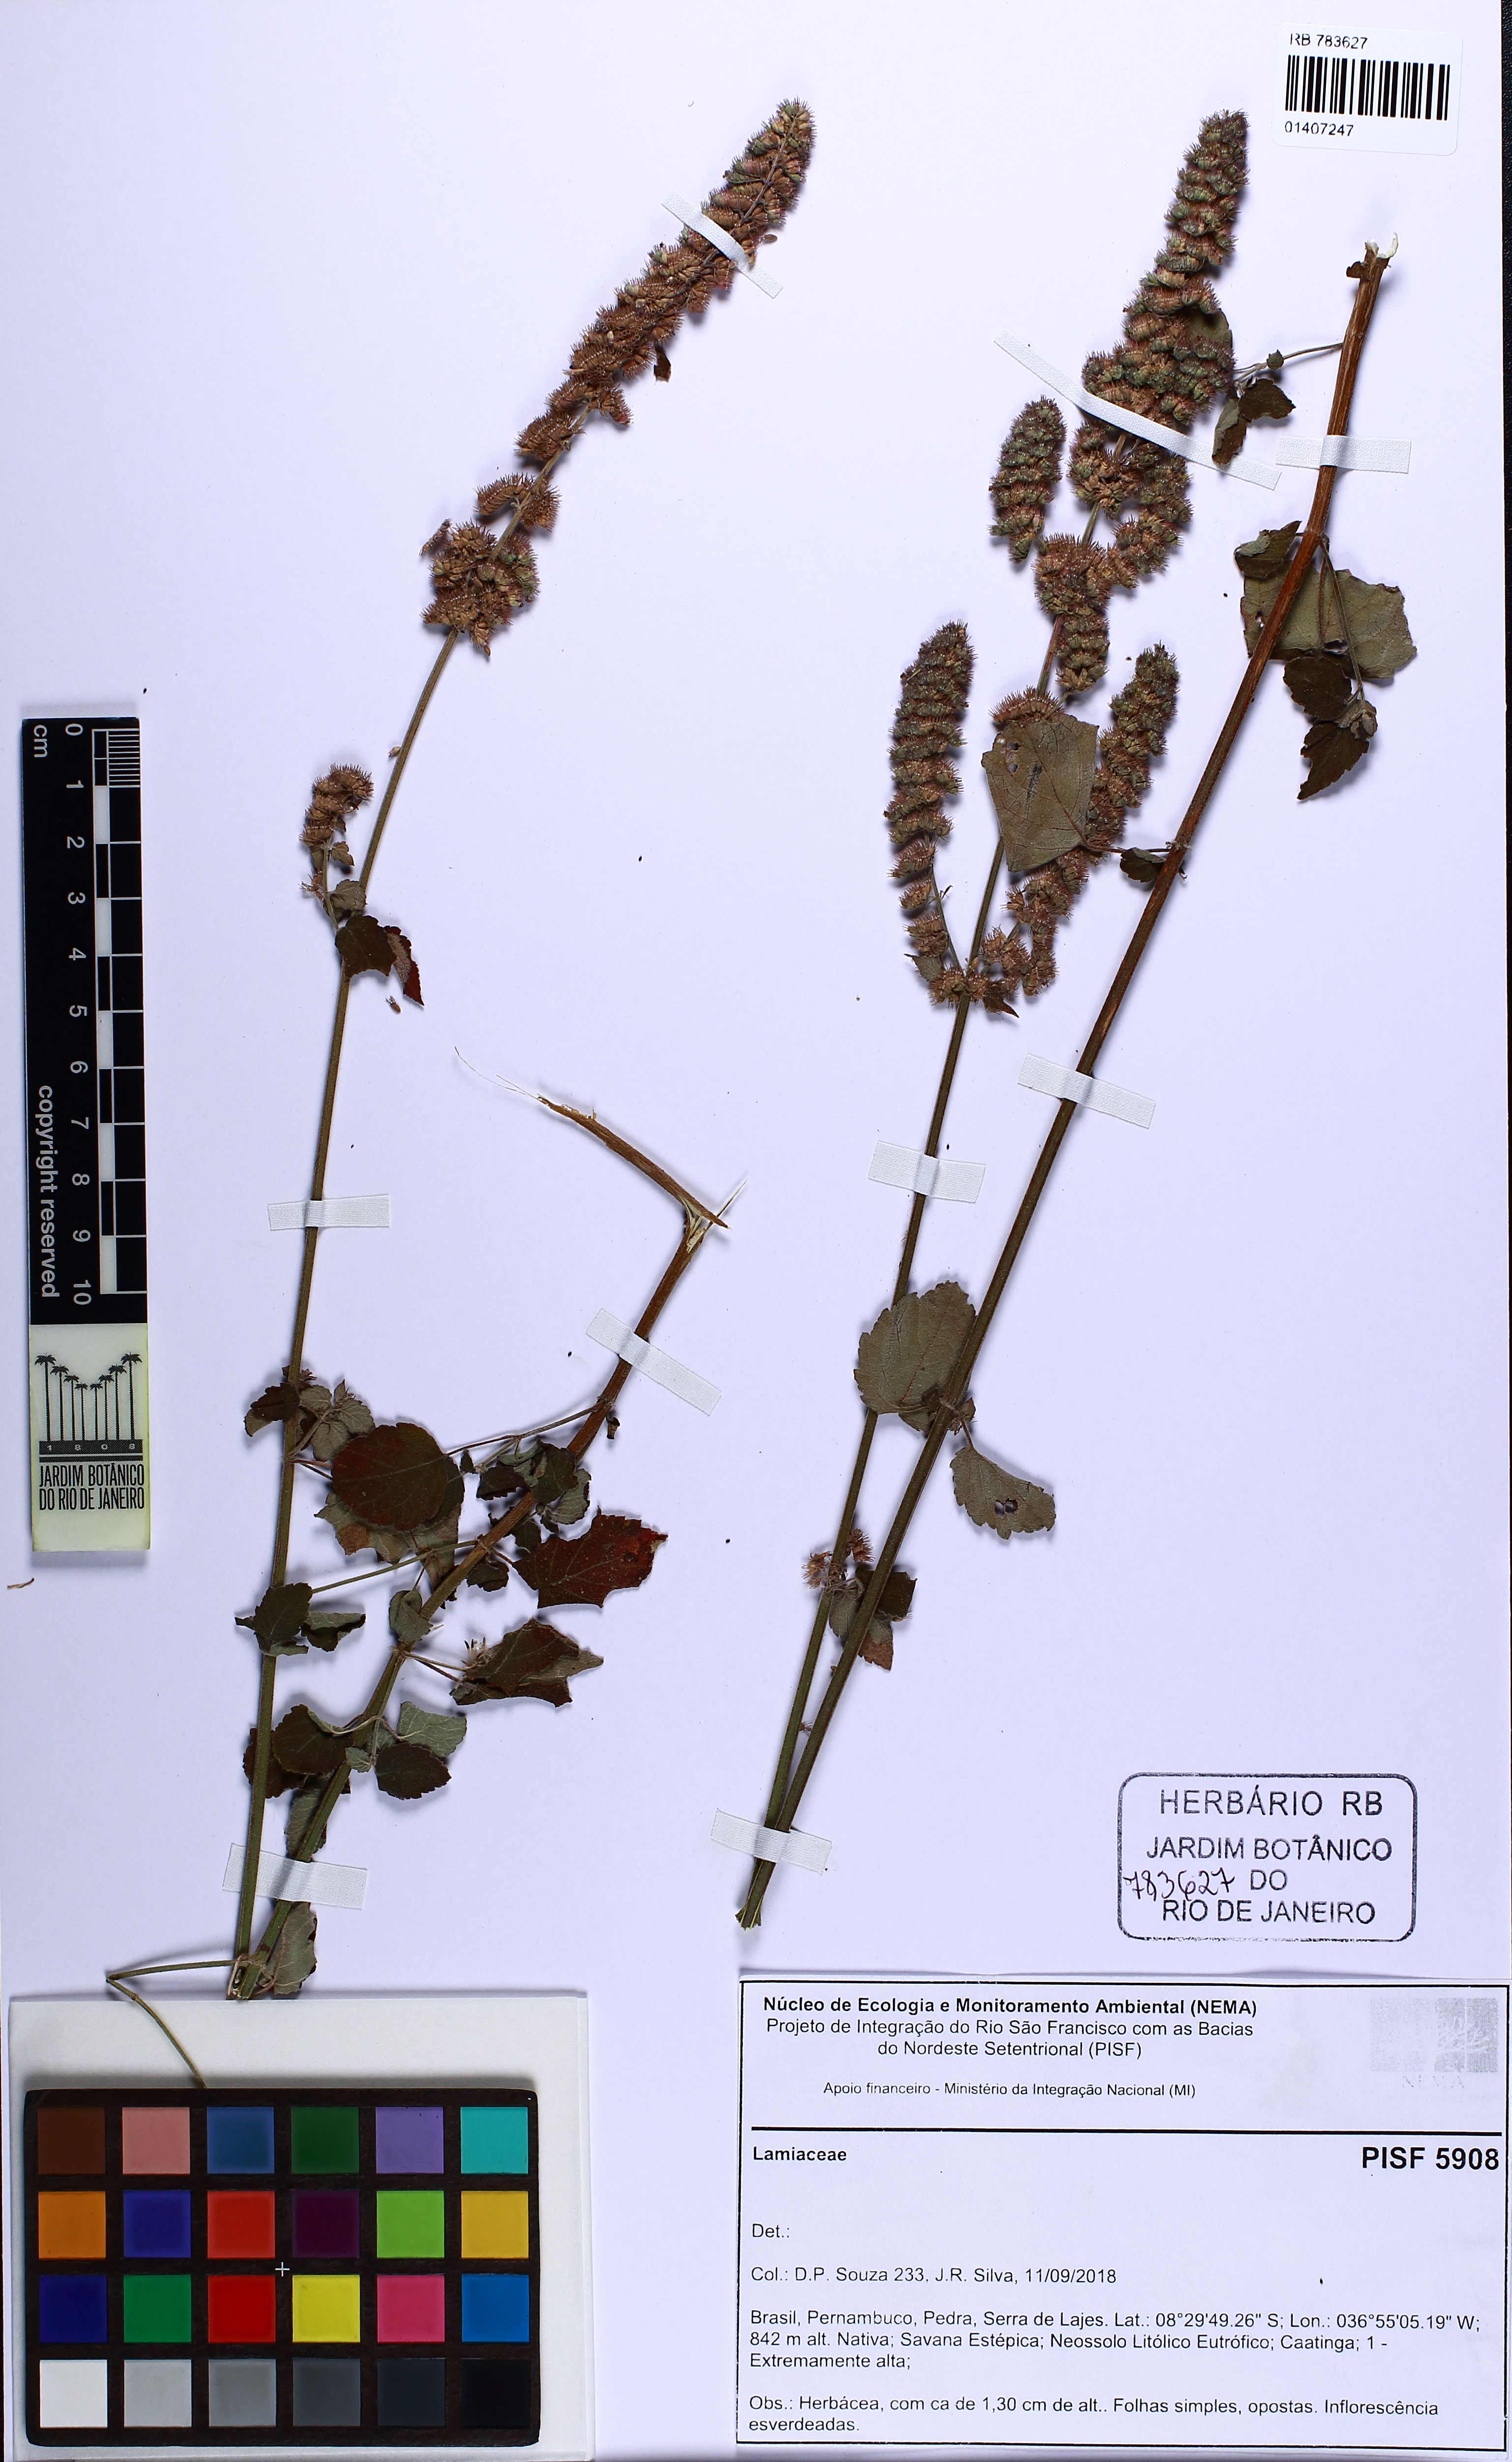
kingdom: Plantae
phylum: Tracheophyta
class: Magnoliopsida
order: Lamiales
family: Lamiaceae
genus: Mesosphaerum
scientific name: Mesosphaerum pectinatum
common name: Comb hyptis
